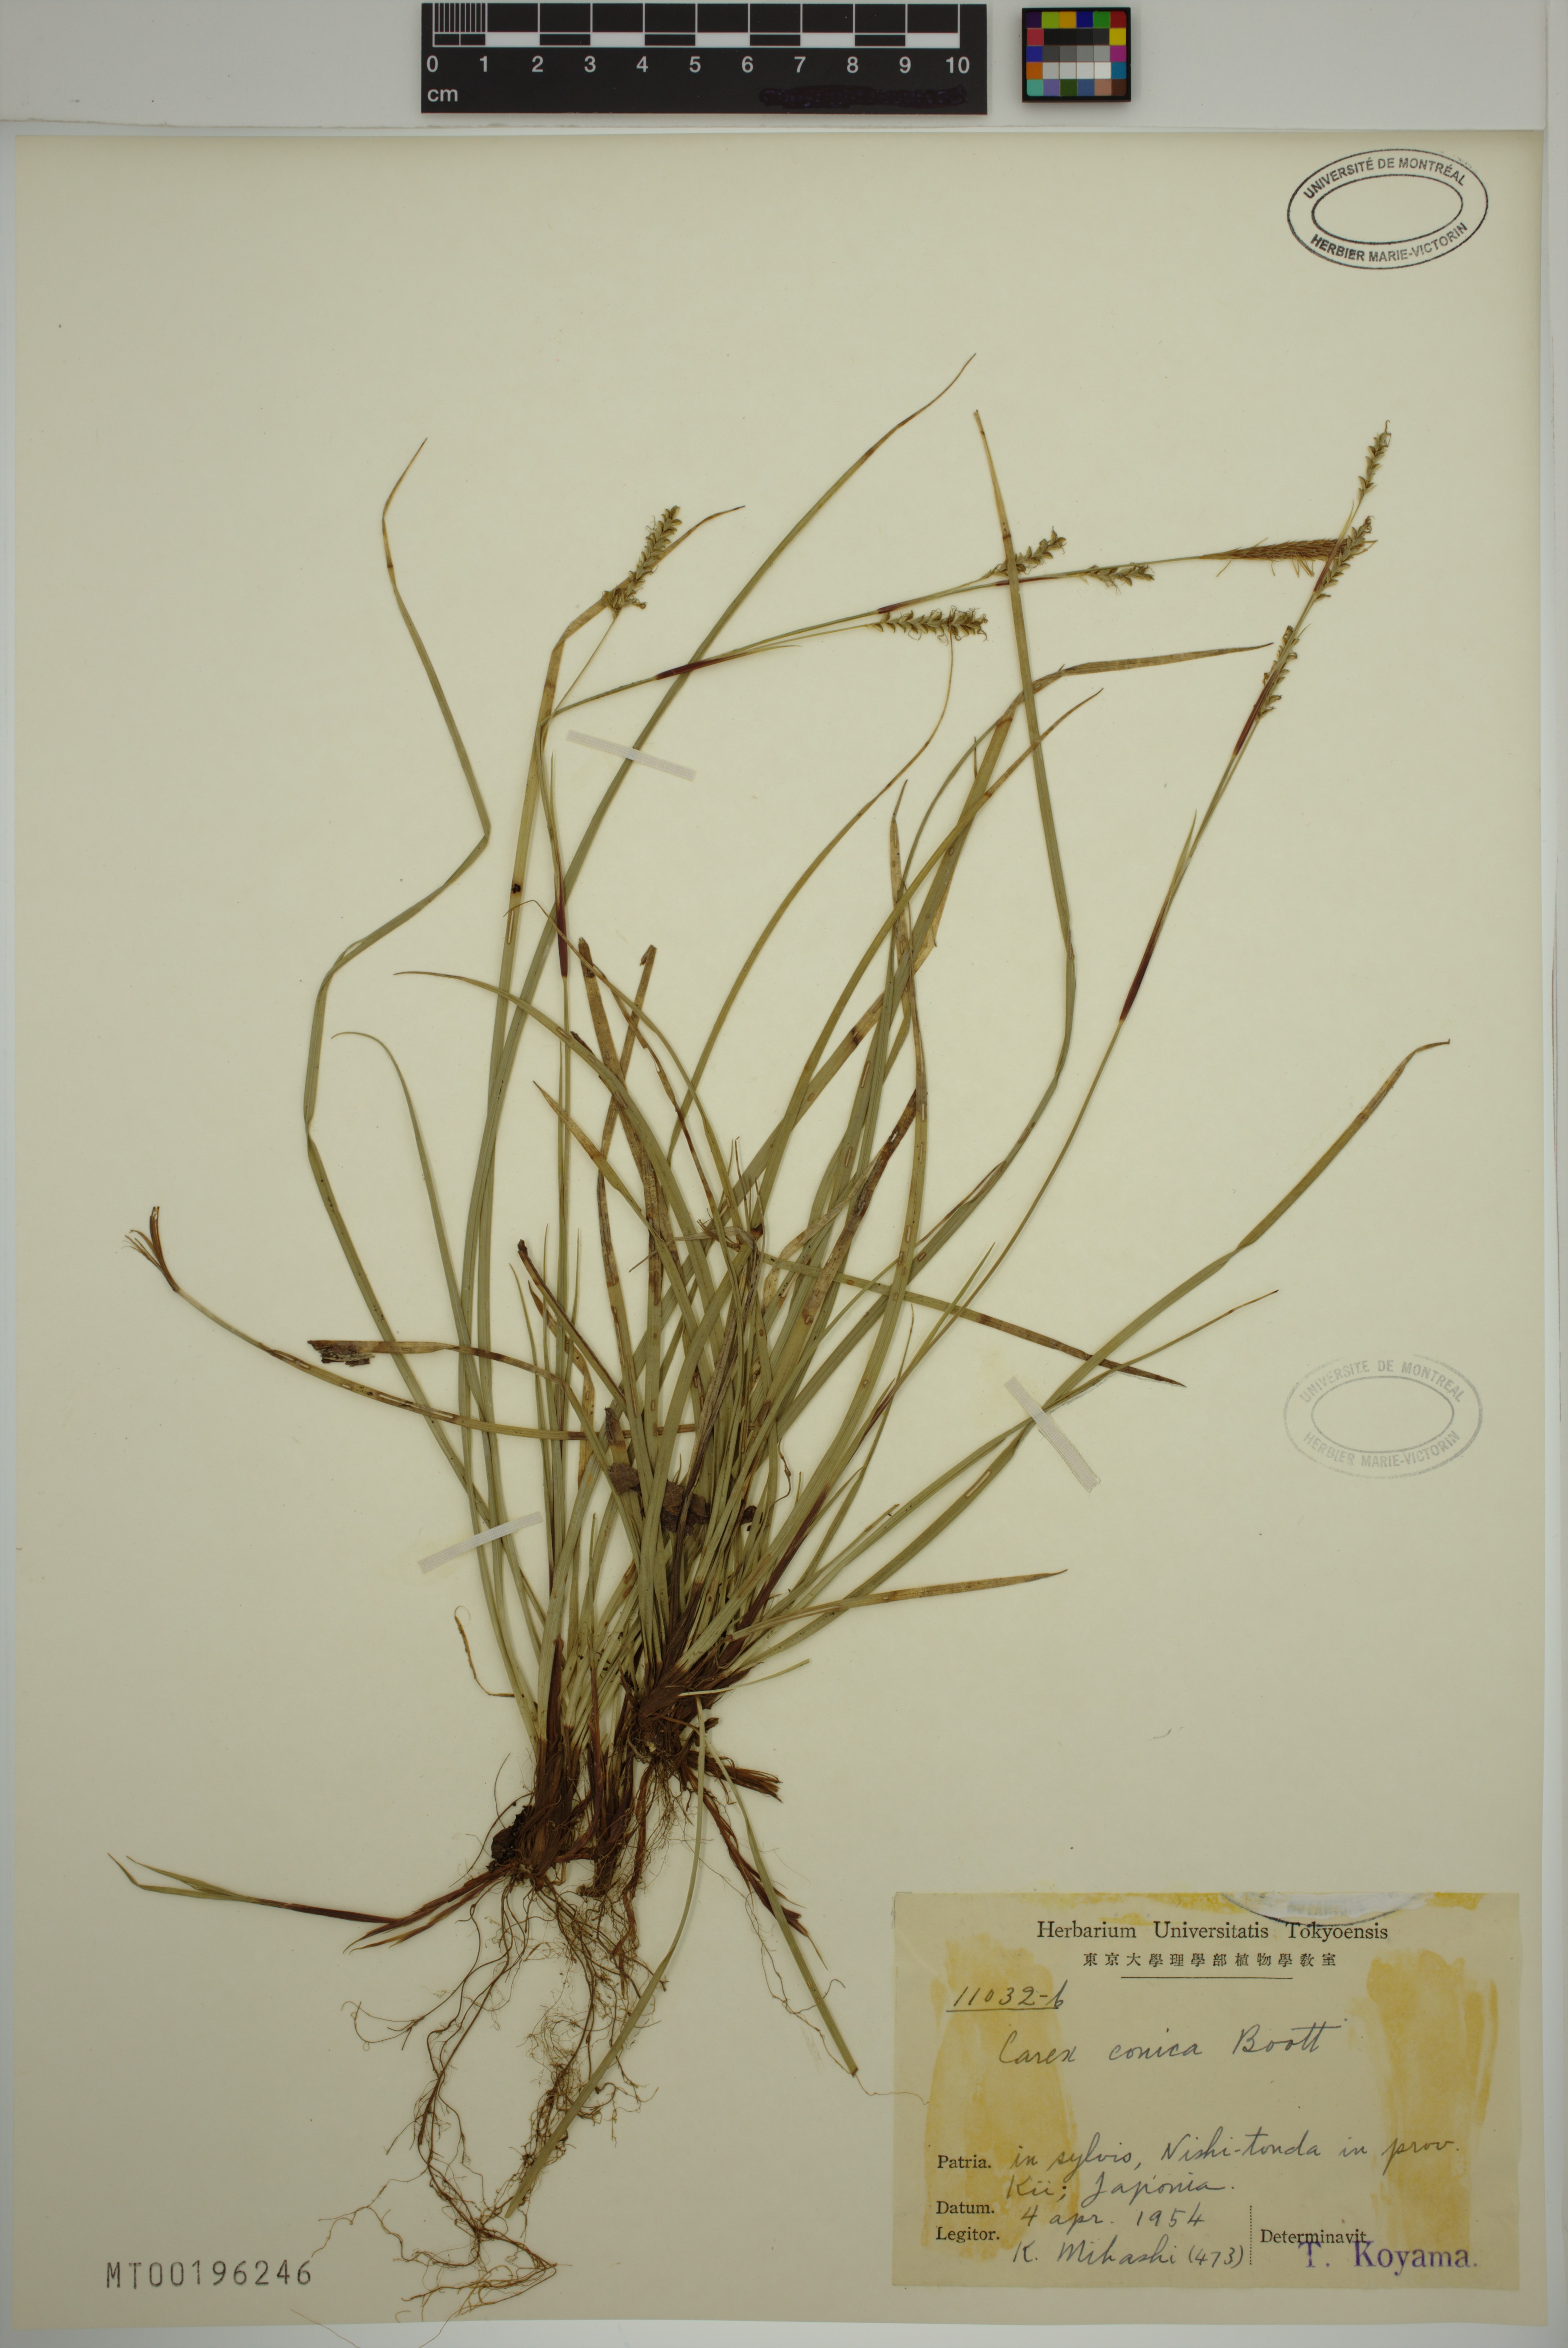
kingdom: Plantae
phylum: Tracheophyta
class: Liliopsida
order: Poales
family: Cyperaceae
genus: Carex
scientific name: Carex conica
